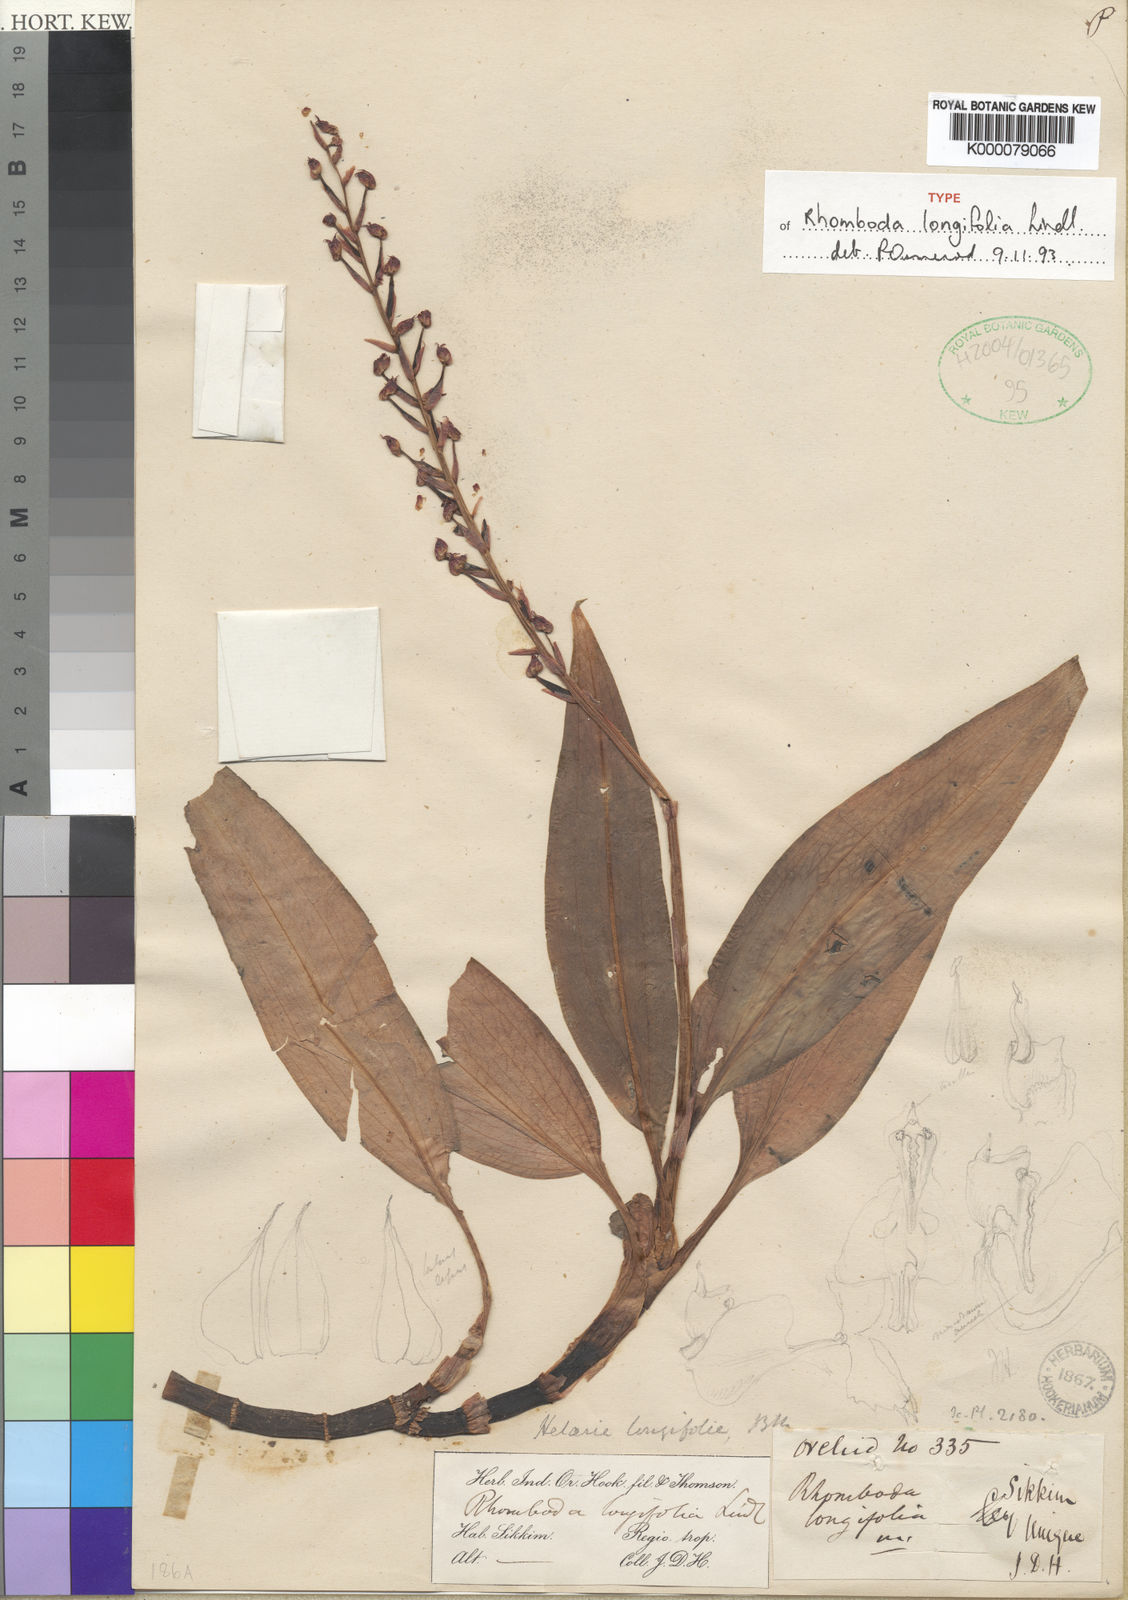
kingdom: Plantae
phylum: Tracheophyta
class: Liliopsida
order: Asparagales
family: Orchidaceae
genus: Rhomboda
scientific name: Rhomboda longifolia
